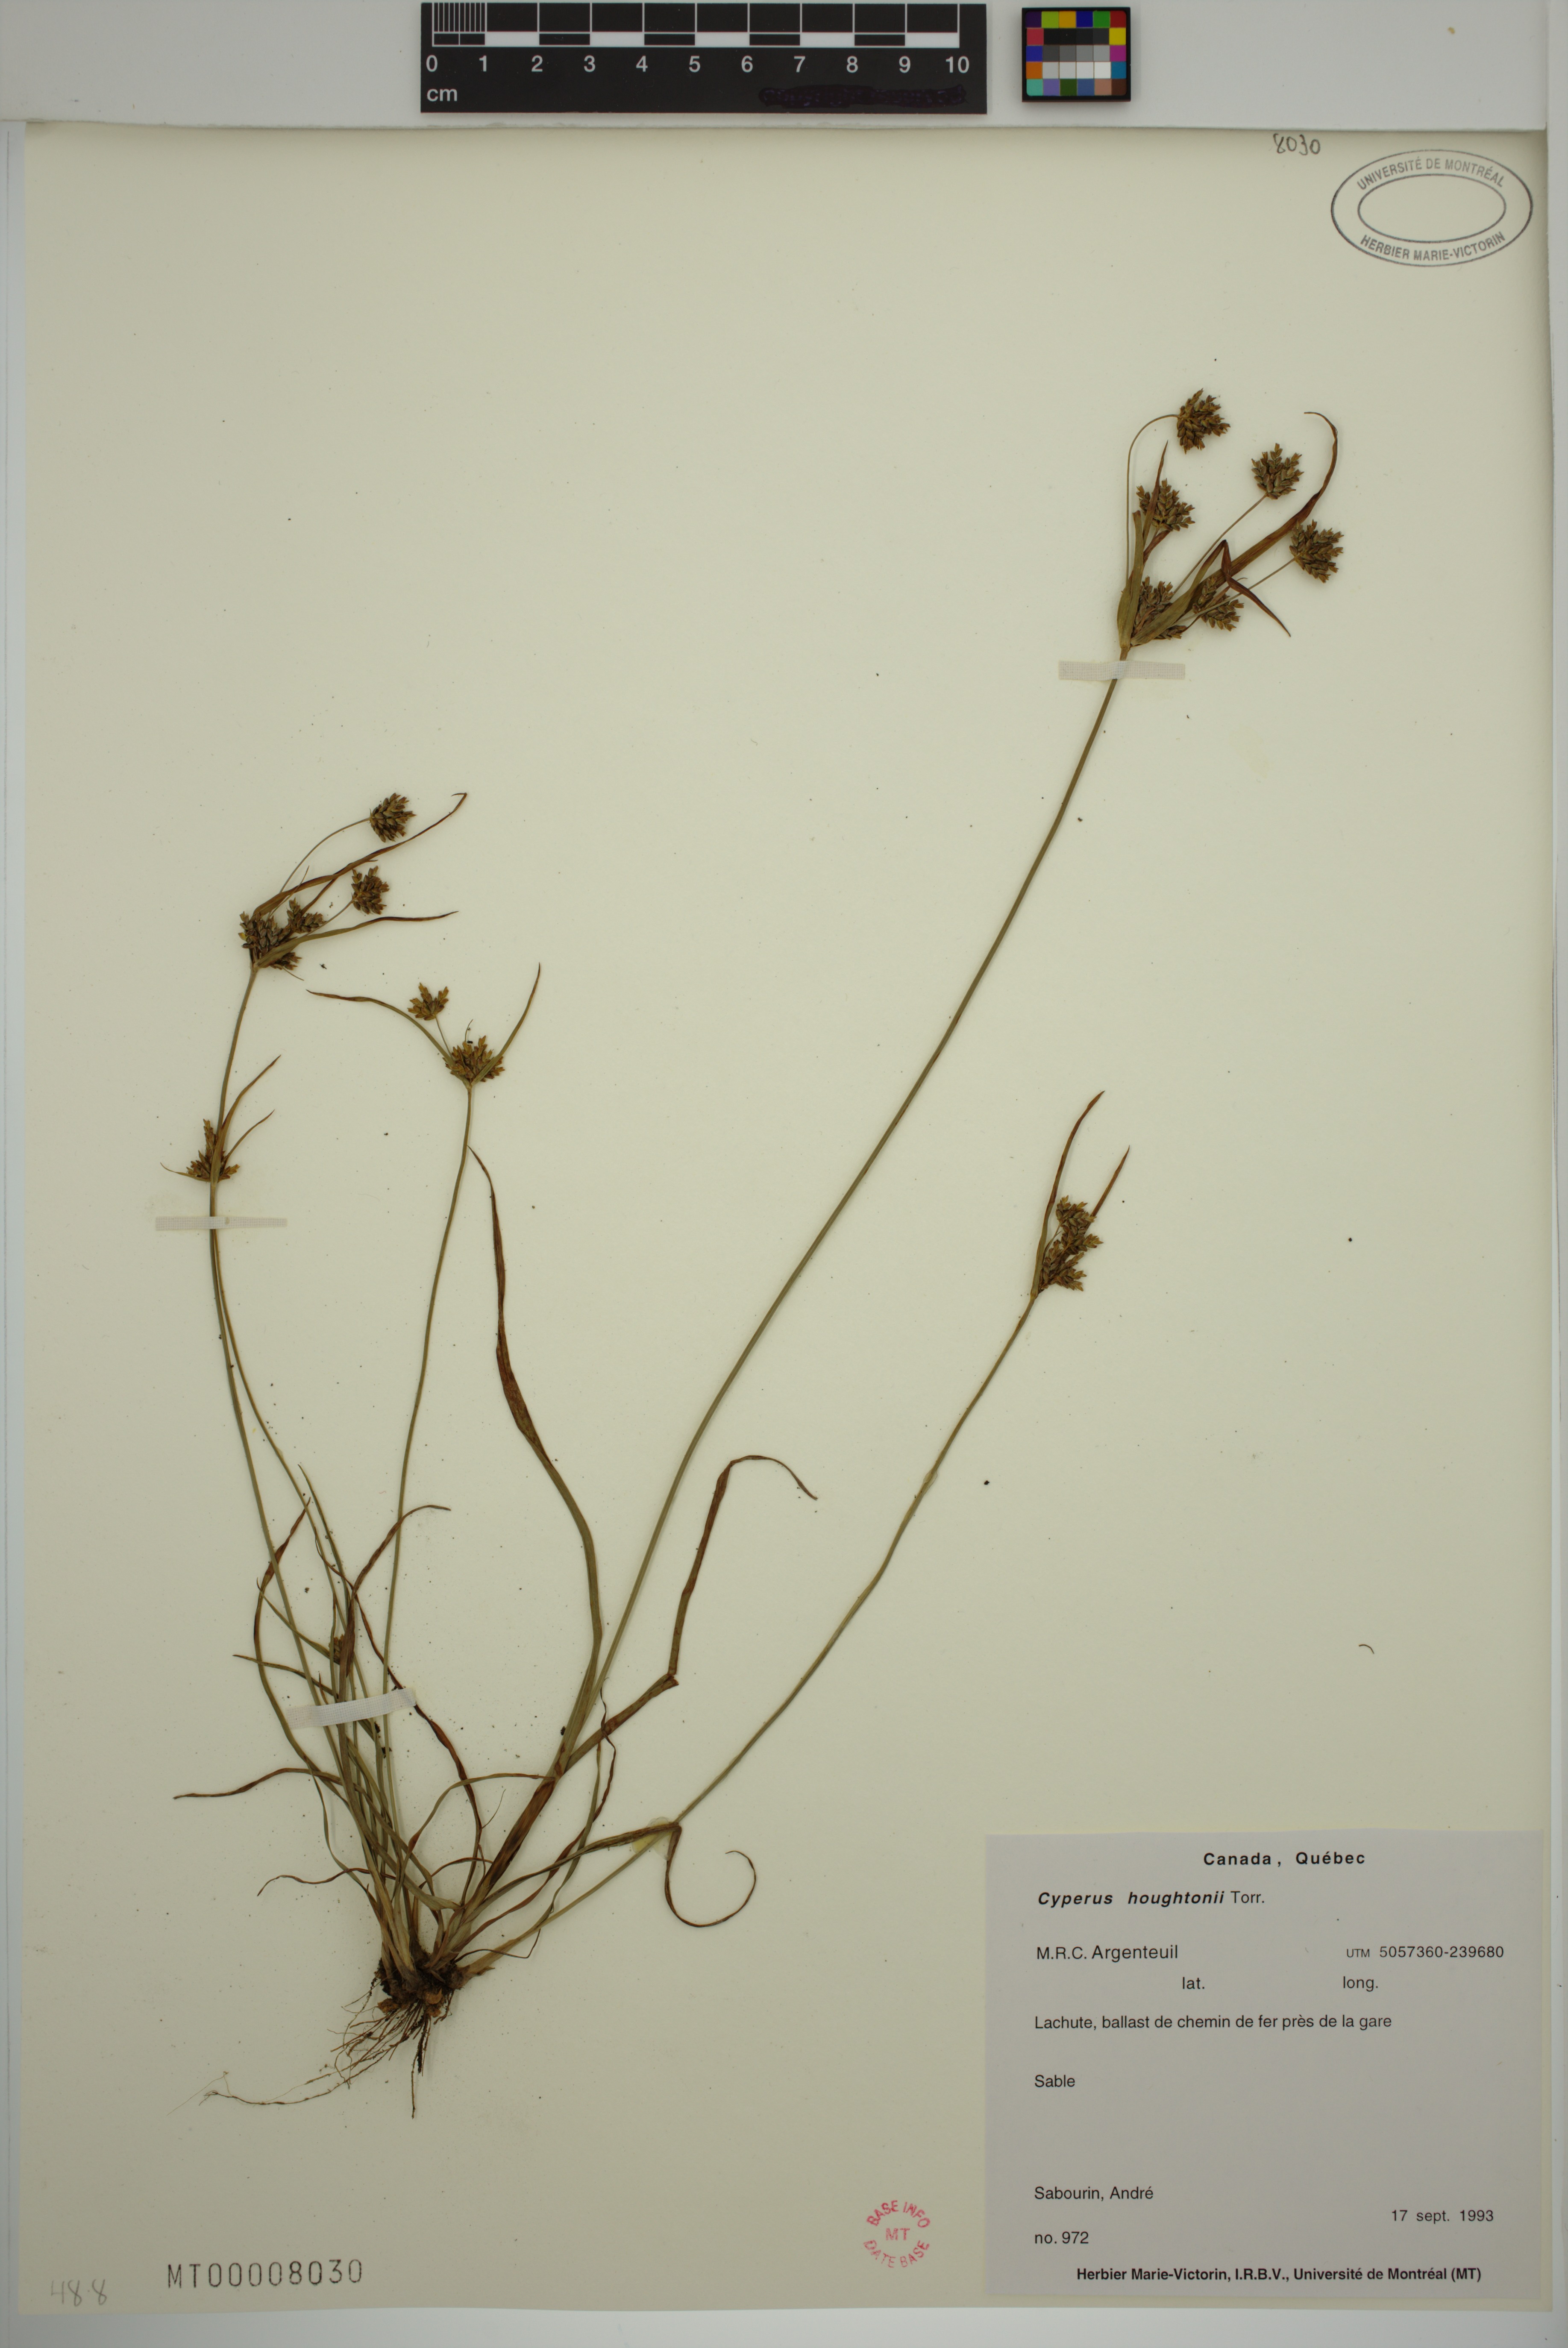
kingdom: Plantae
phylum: Tracheophyta
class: Liliopsida
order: Poales
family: Cyperaceae
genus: Cyperus
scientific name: Cyperus houghtonii
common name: Houghton's cyperus
